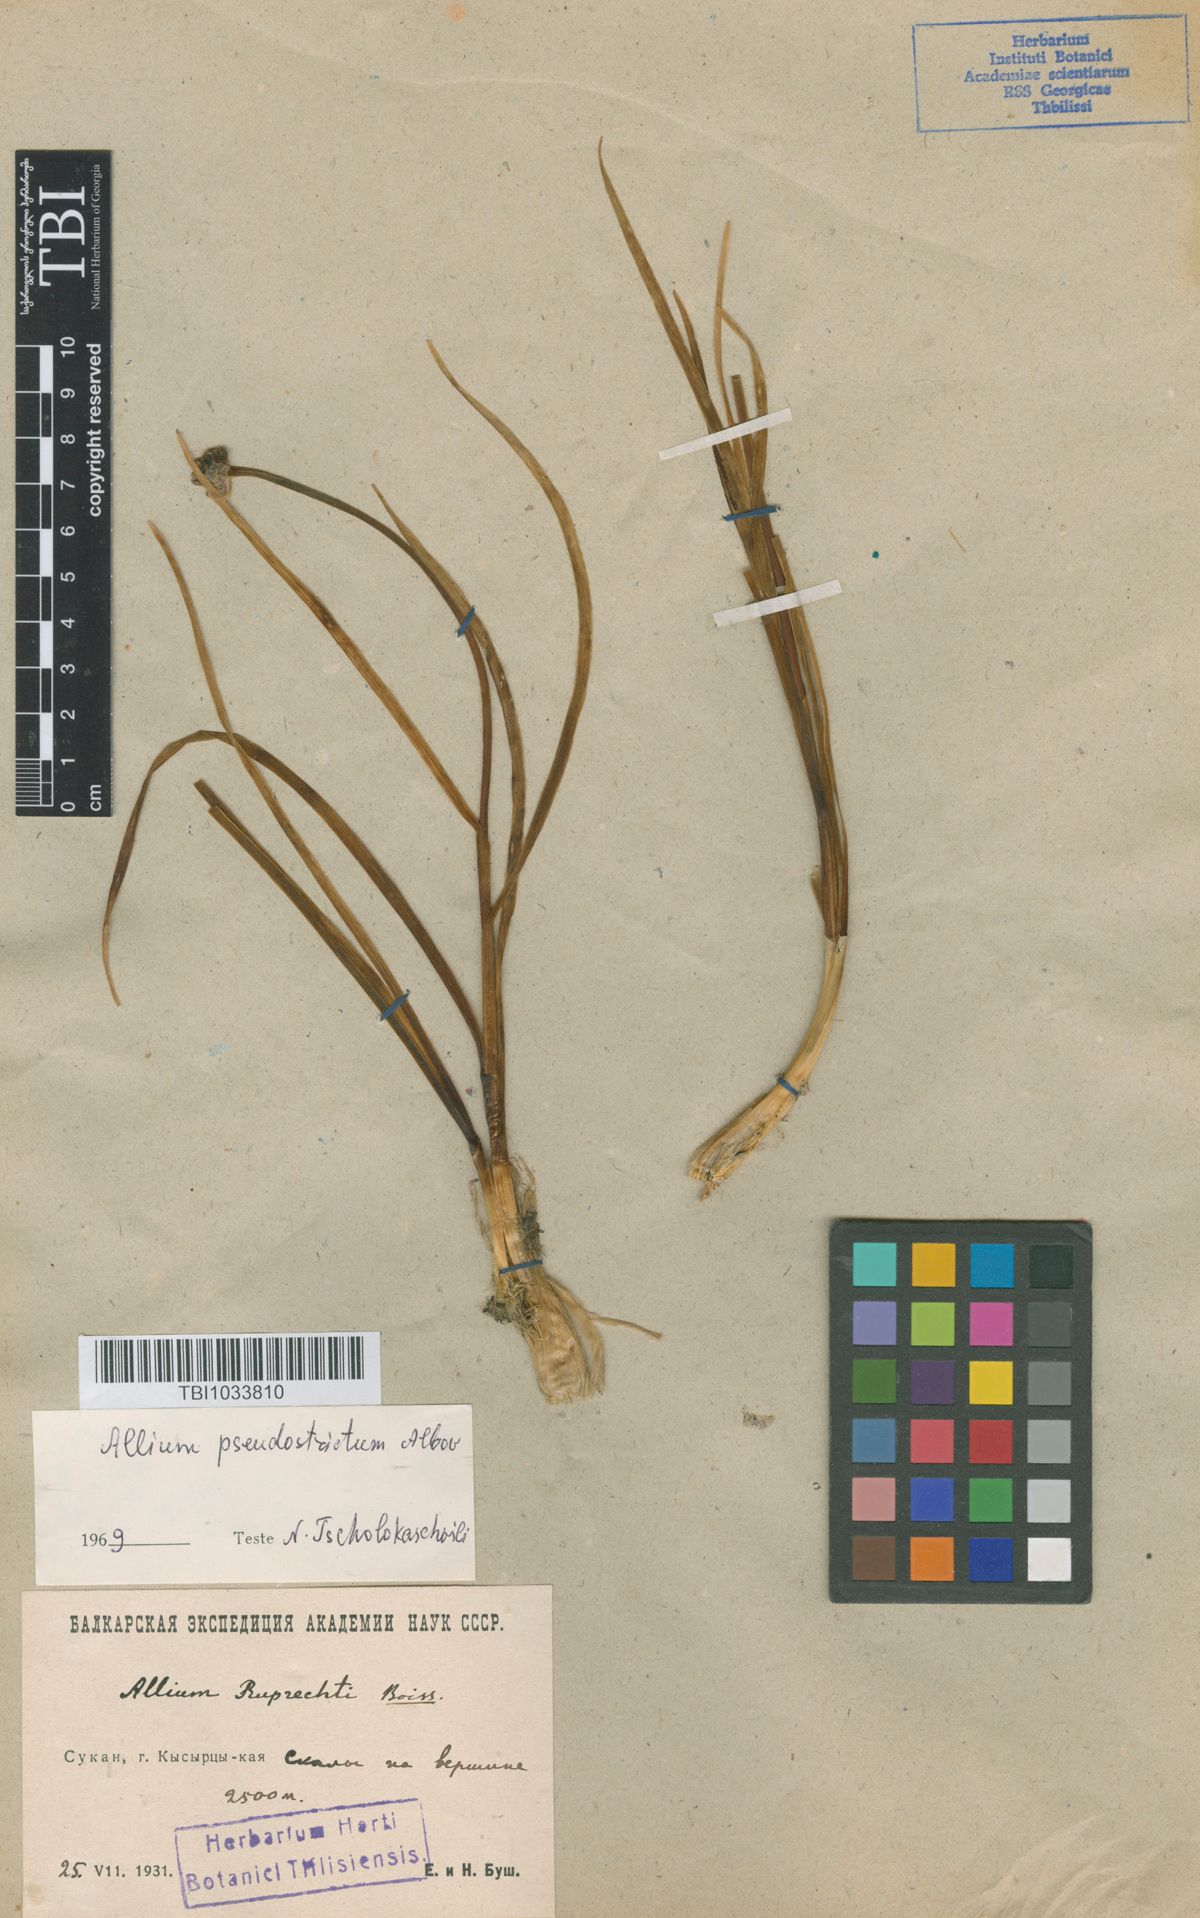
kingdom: Plantae
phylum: Tracheophyta
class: Liliopsida
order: Asparagales
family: Amaryllidaceae
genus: Allium
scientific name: Allium pseudostrictum
